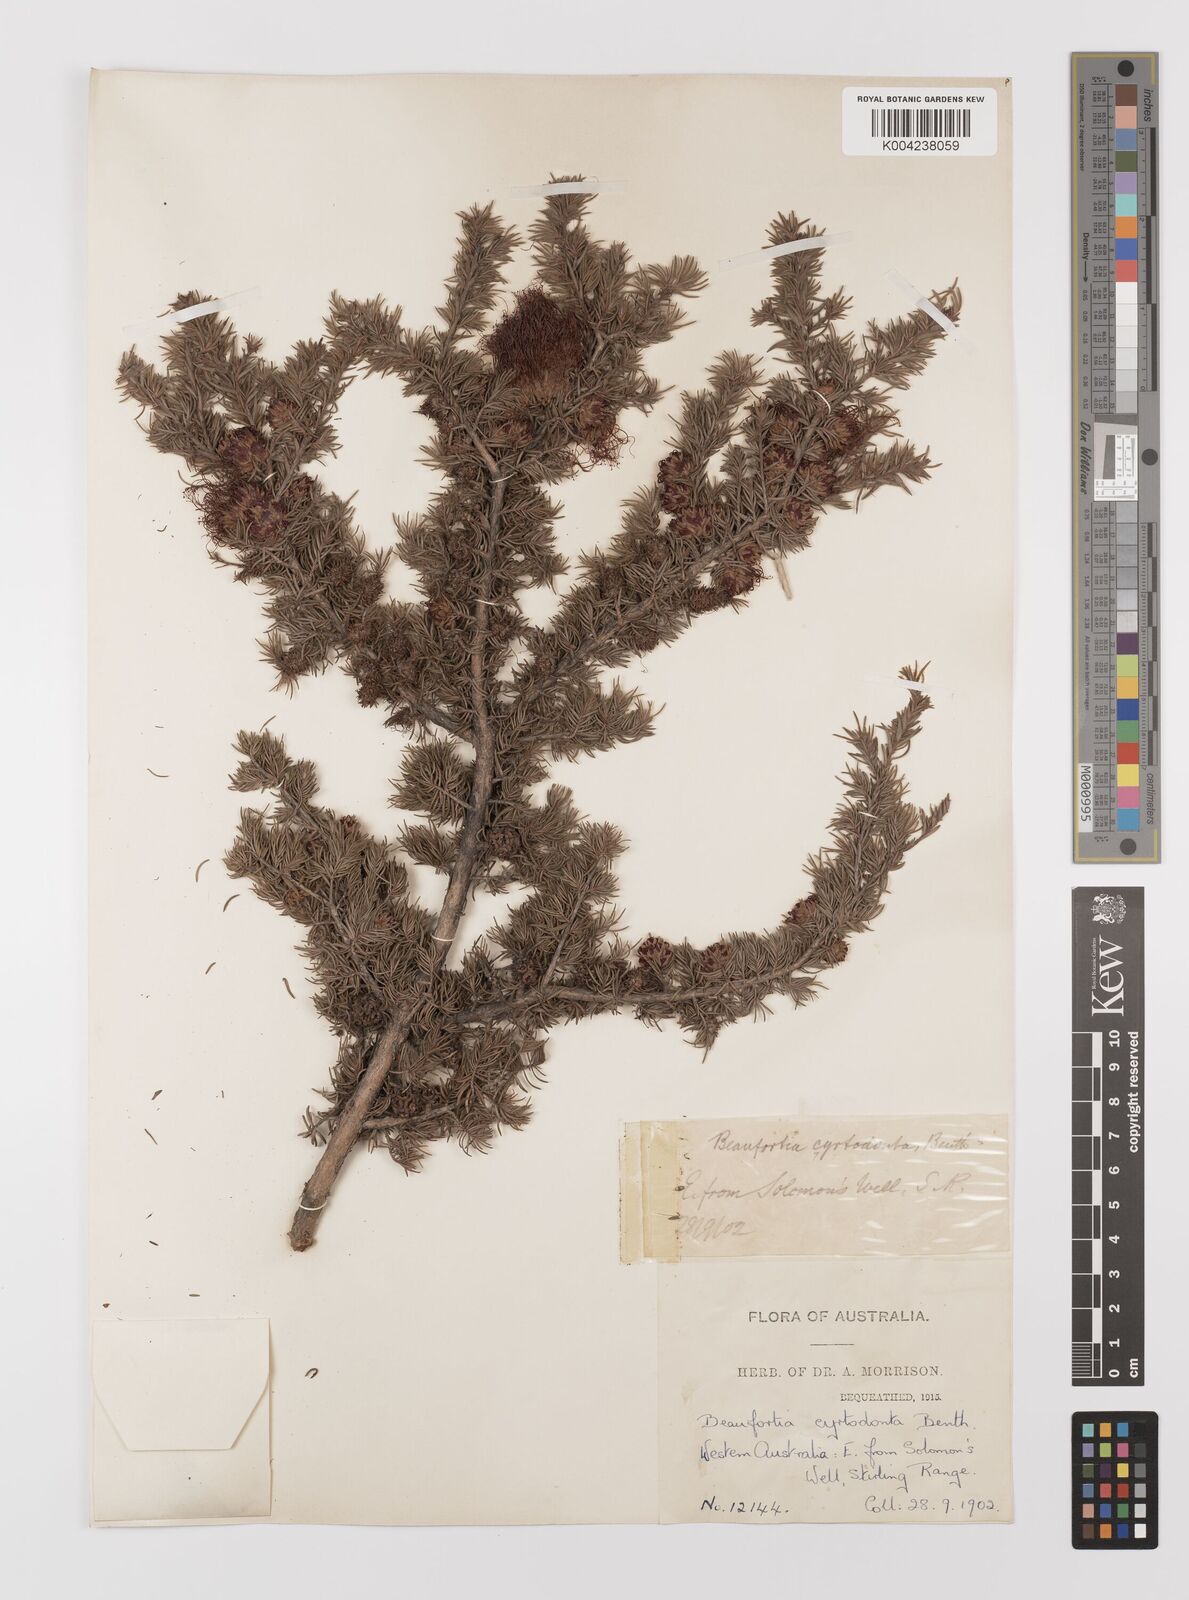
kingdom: Plantae
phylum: Tracheophyta
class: Magnoliopsida
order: Myrtales
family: Myrtaceae
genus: Melaleuca
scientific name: Melaleuca cyrtodonta
